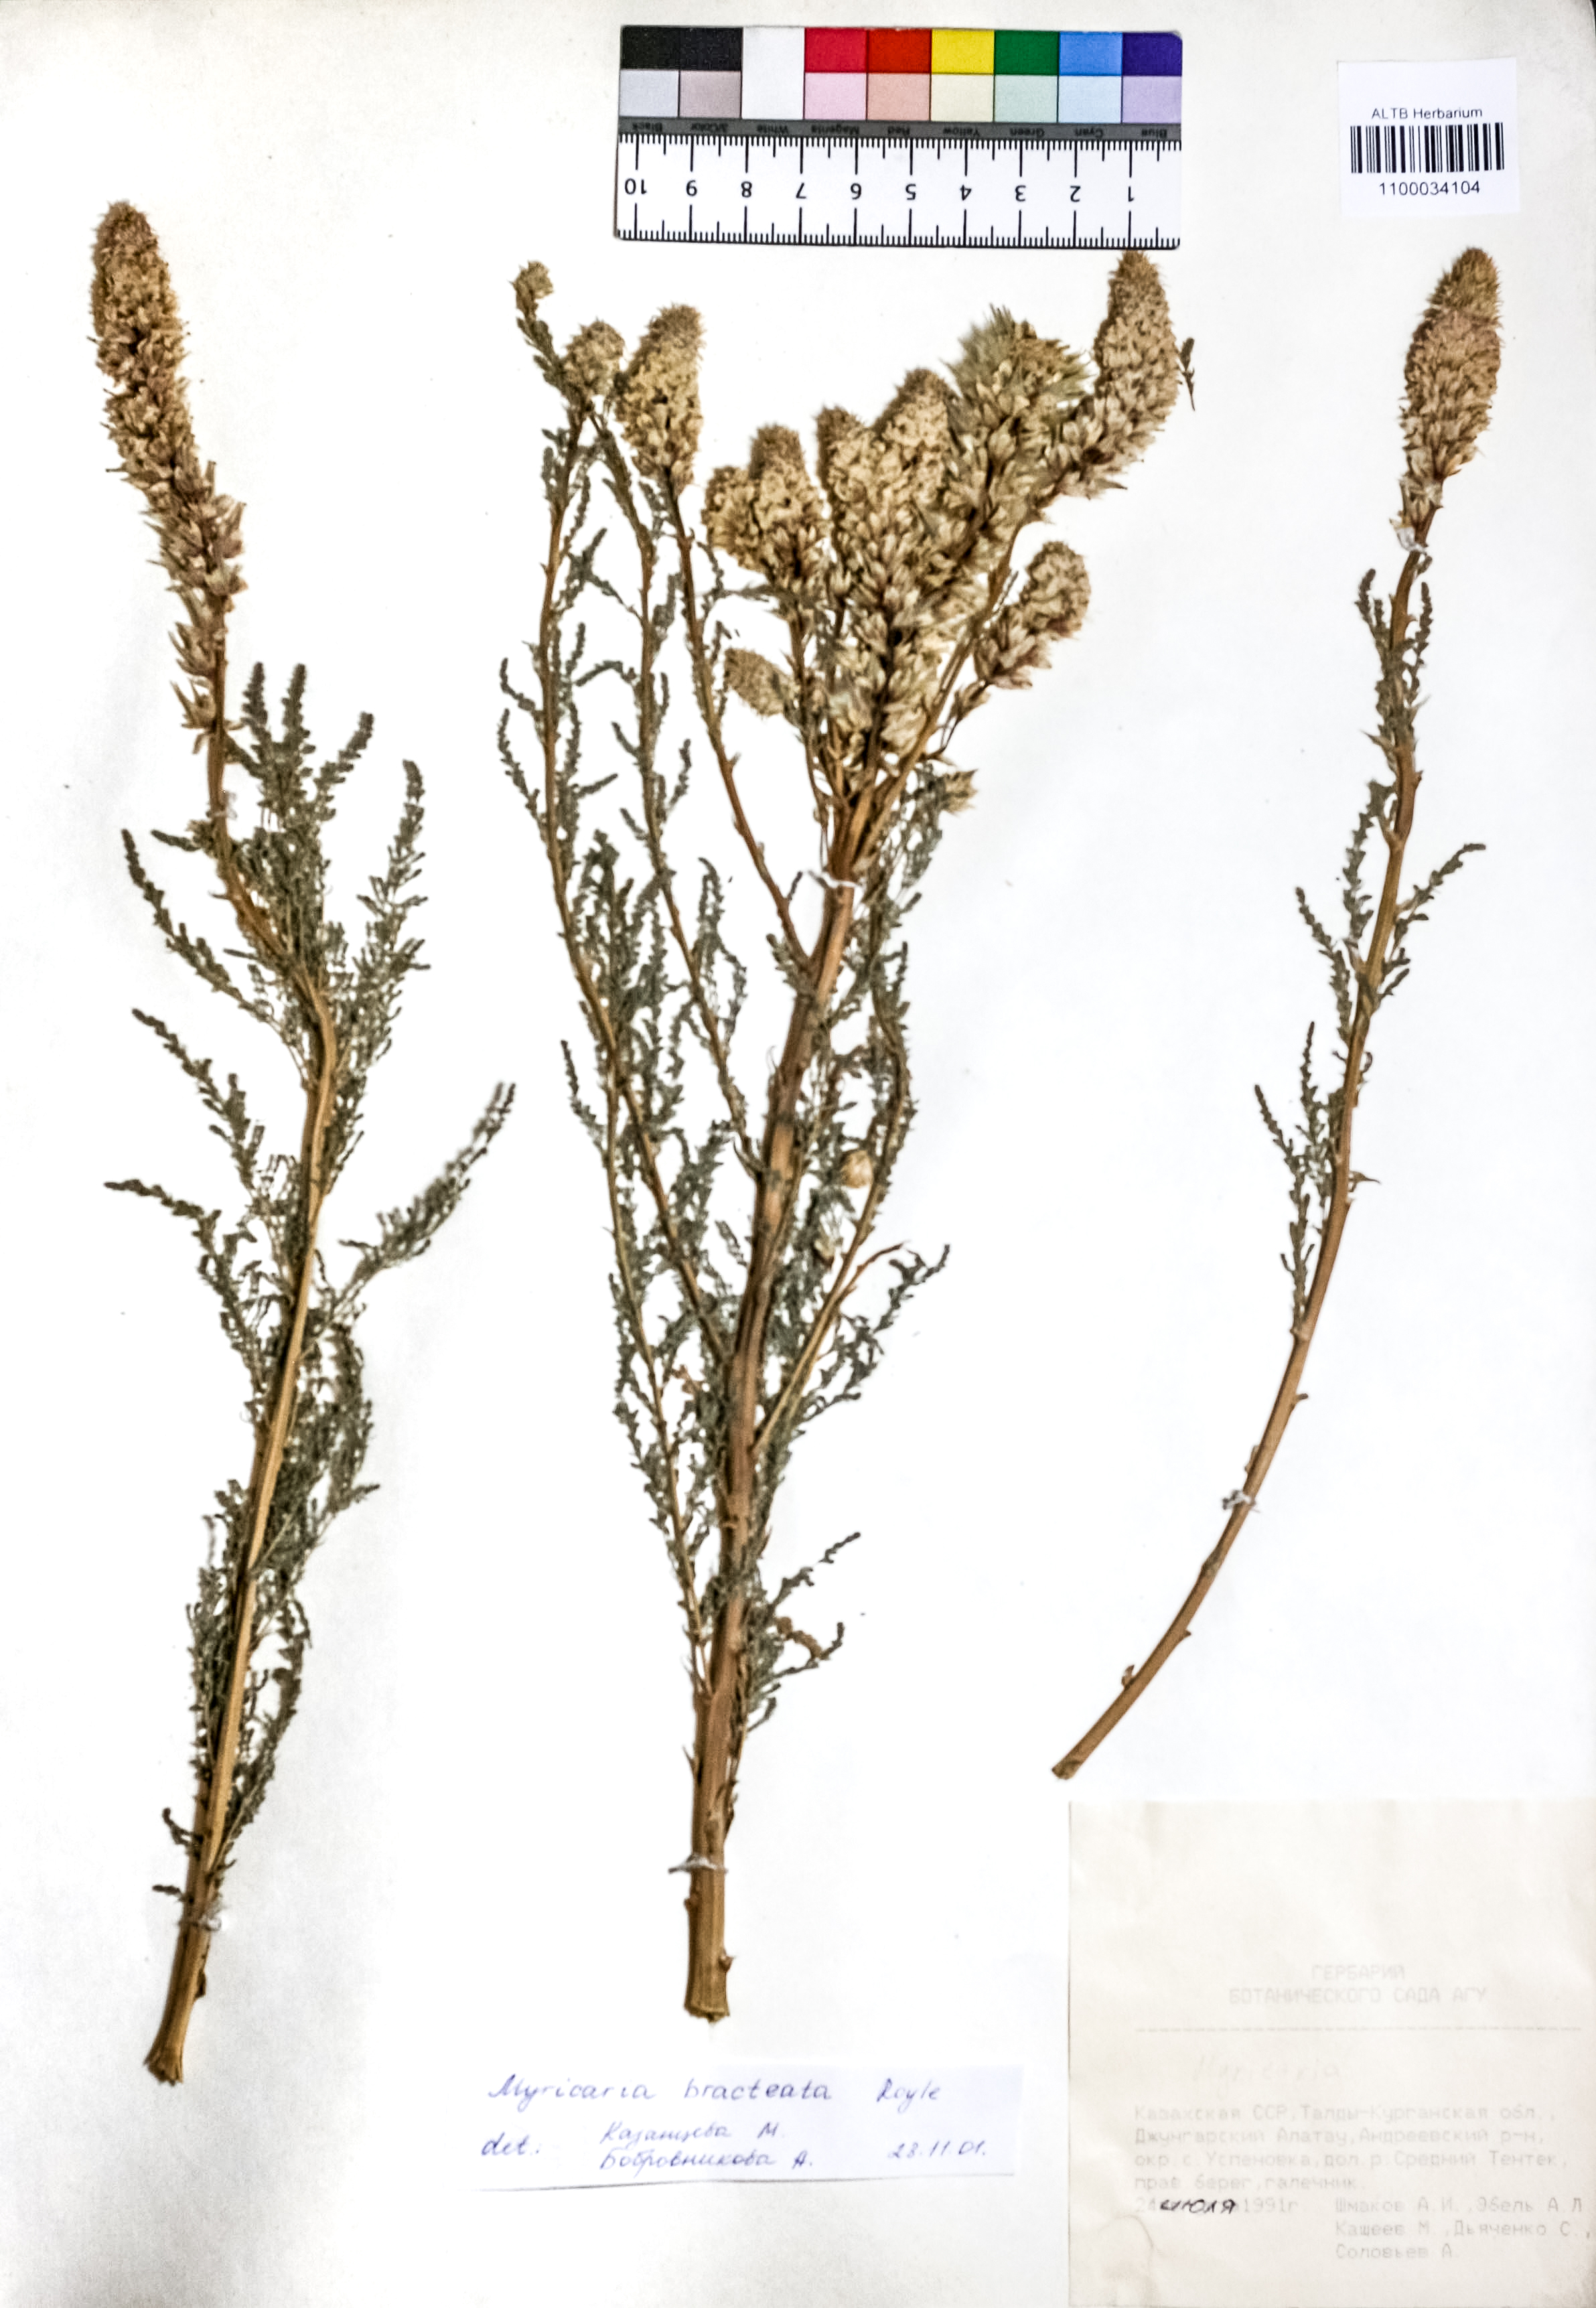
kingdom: Plantae
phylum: Tracheophyta
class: Magnoliopsida
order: Caryophyllales
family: Tamaricaceae
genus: Myricaria
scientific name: Myricaria bracteata
